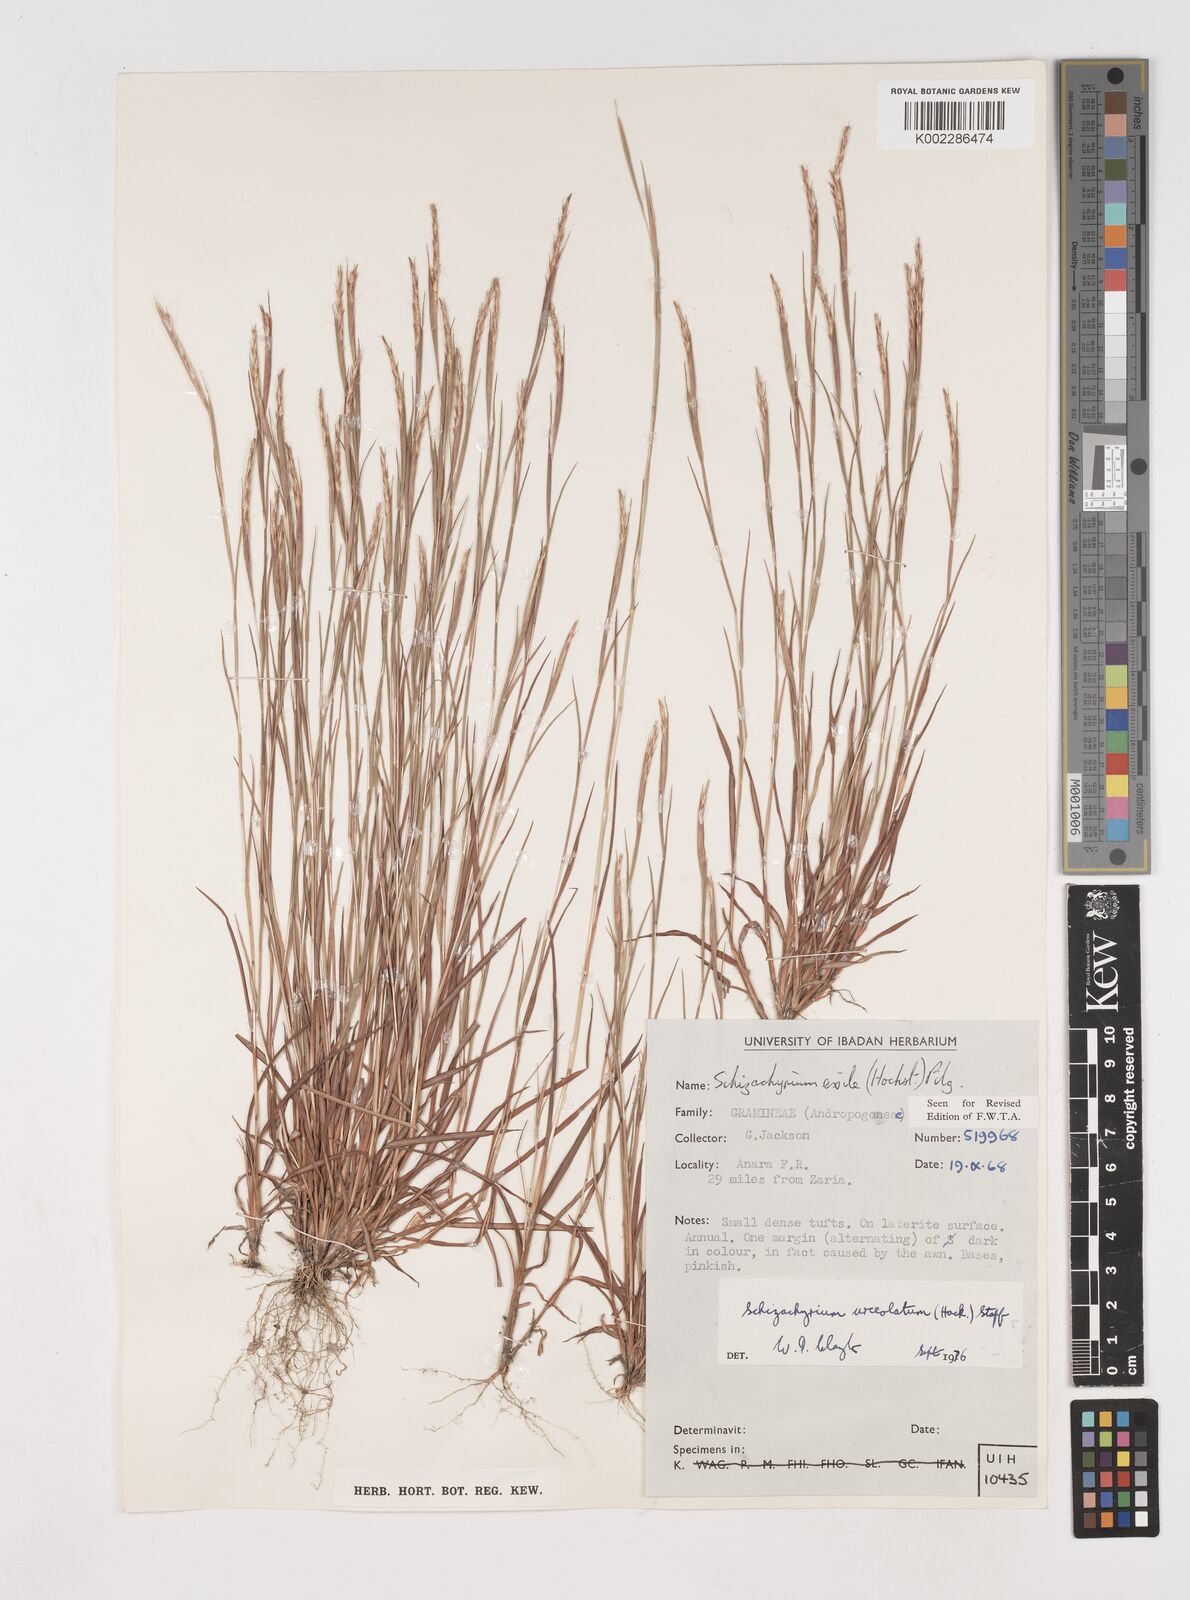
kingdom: Plantae
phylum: Tracheophyta
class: Liliopsida
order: Poales
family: Poaceae
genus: Schizachyrium
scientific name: Schizachyrium urceolatum
